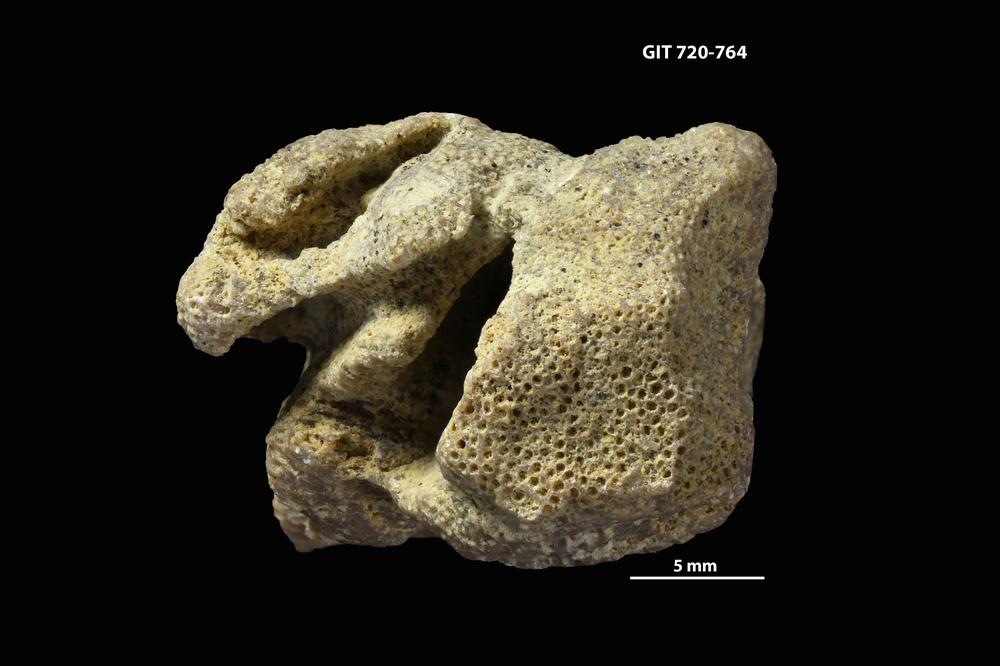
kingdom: Animalia
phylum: Bryozoa
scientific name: Bryozoa
